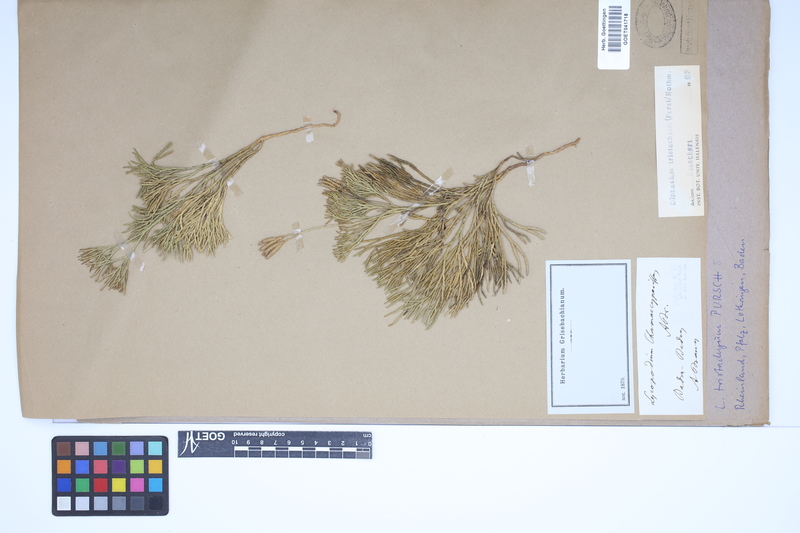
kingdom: Plantae
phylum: Tracheophyta
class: Lycopodiopsida
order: Lycopodiales
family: Lycopodiaceae
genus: Diphasiastrum
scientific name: Diphasiastrum tristachyum
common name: Blue ground-cedar
